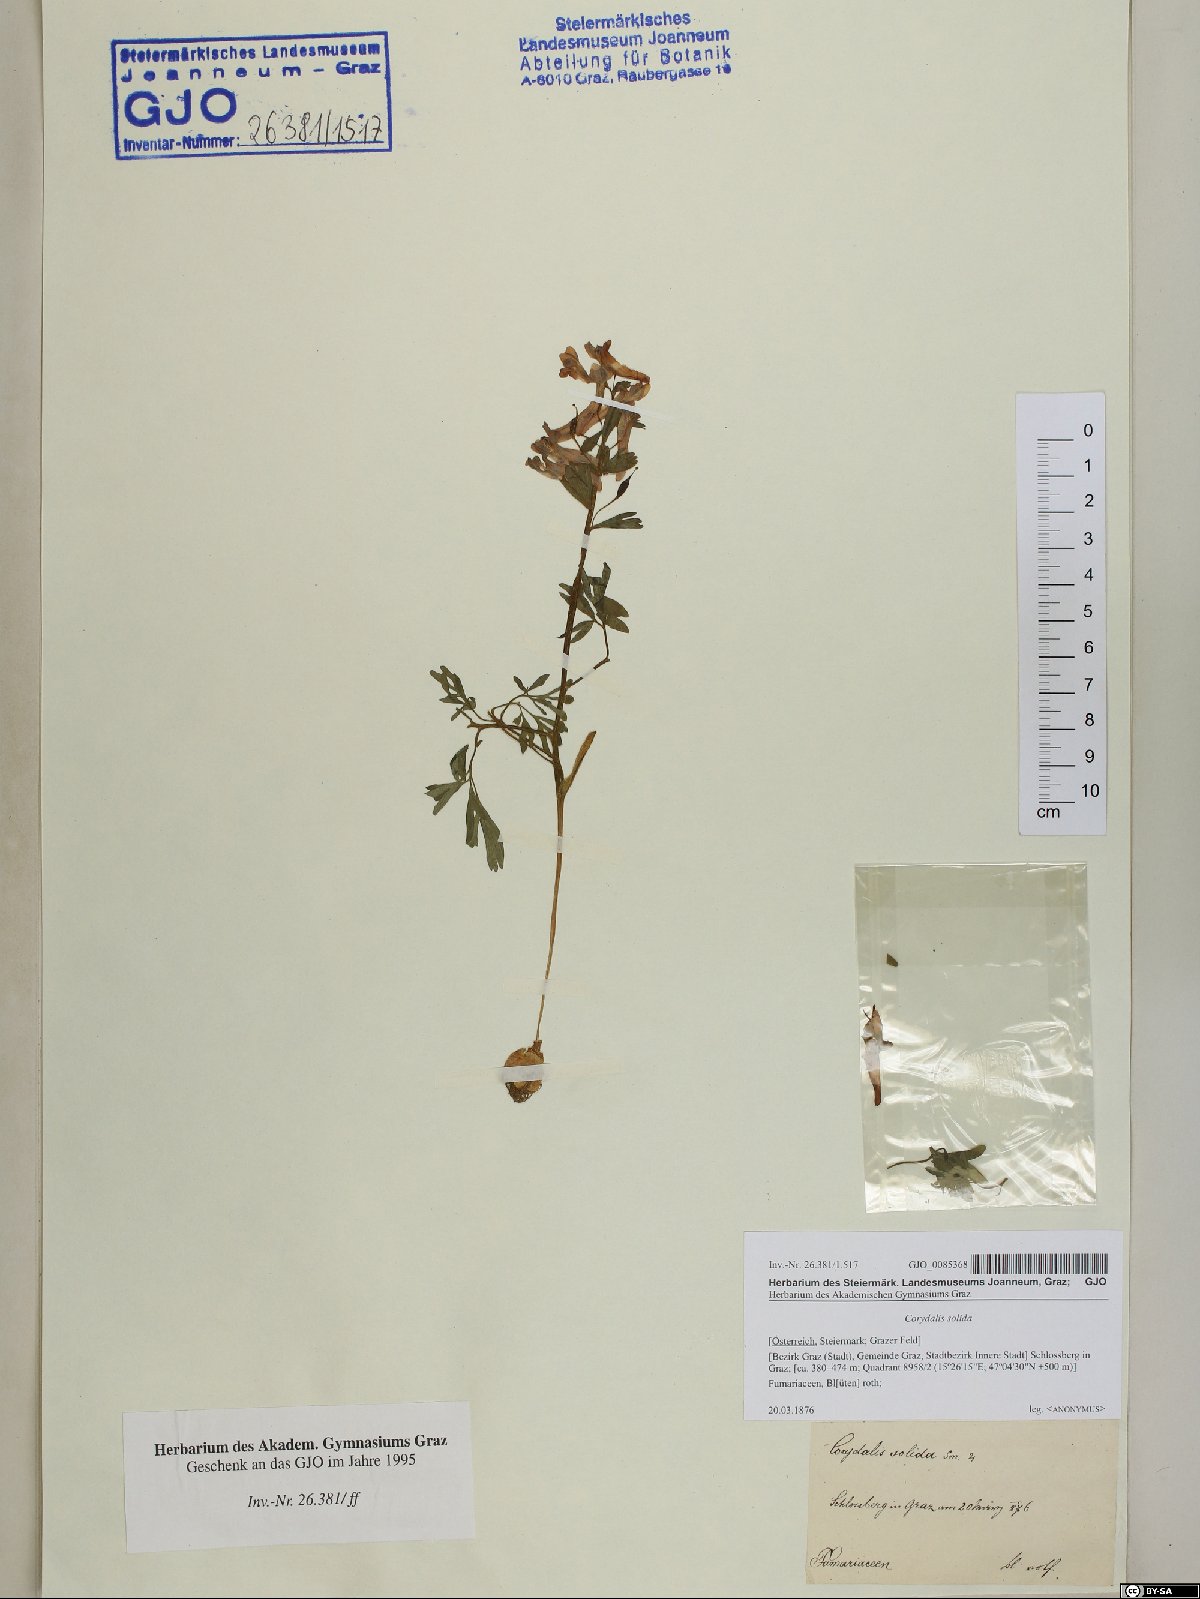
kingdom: Plantae
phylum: Tracheophyta
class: Magnoliopsida
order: Ranunculales
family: Papaveraceae
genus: Corydalis
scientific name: Corydalis solida
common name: Bird-in-a-bush
